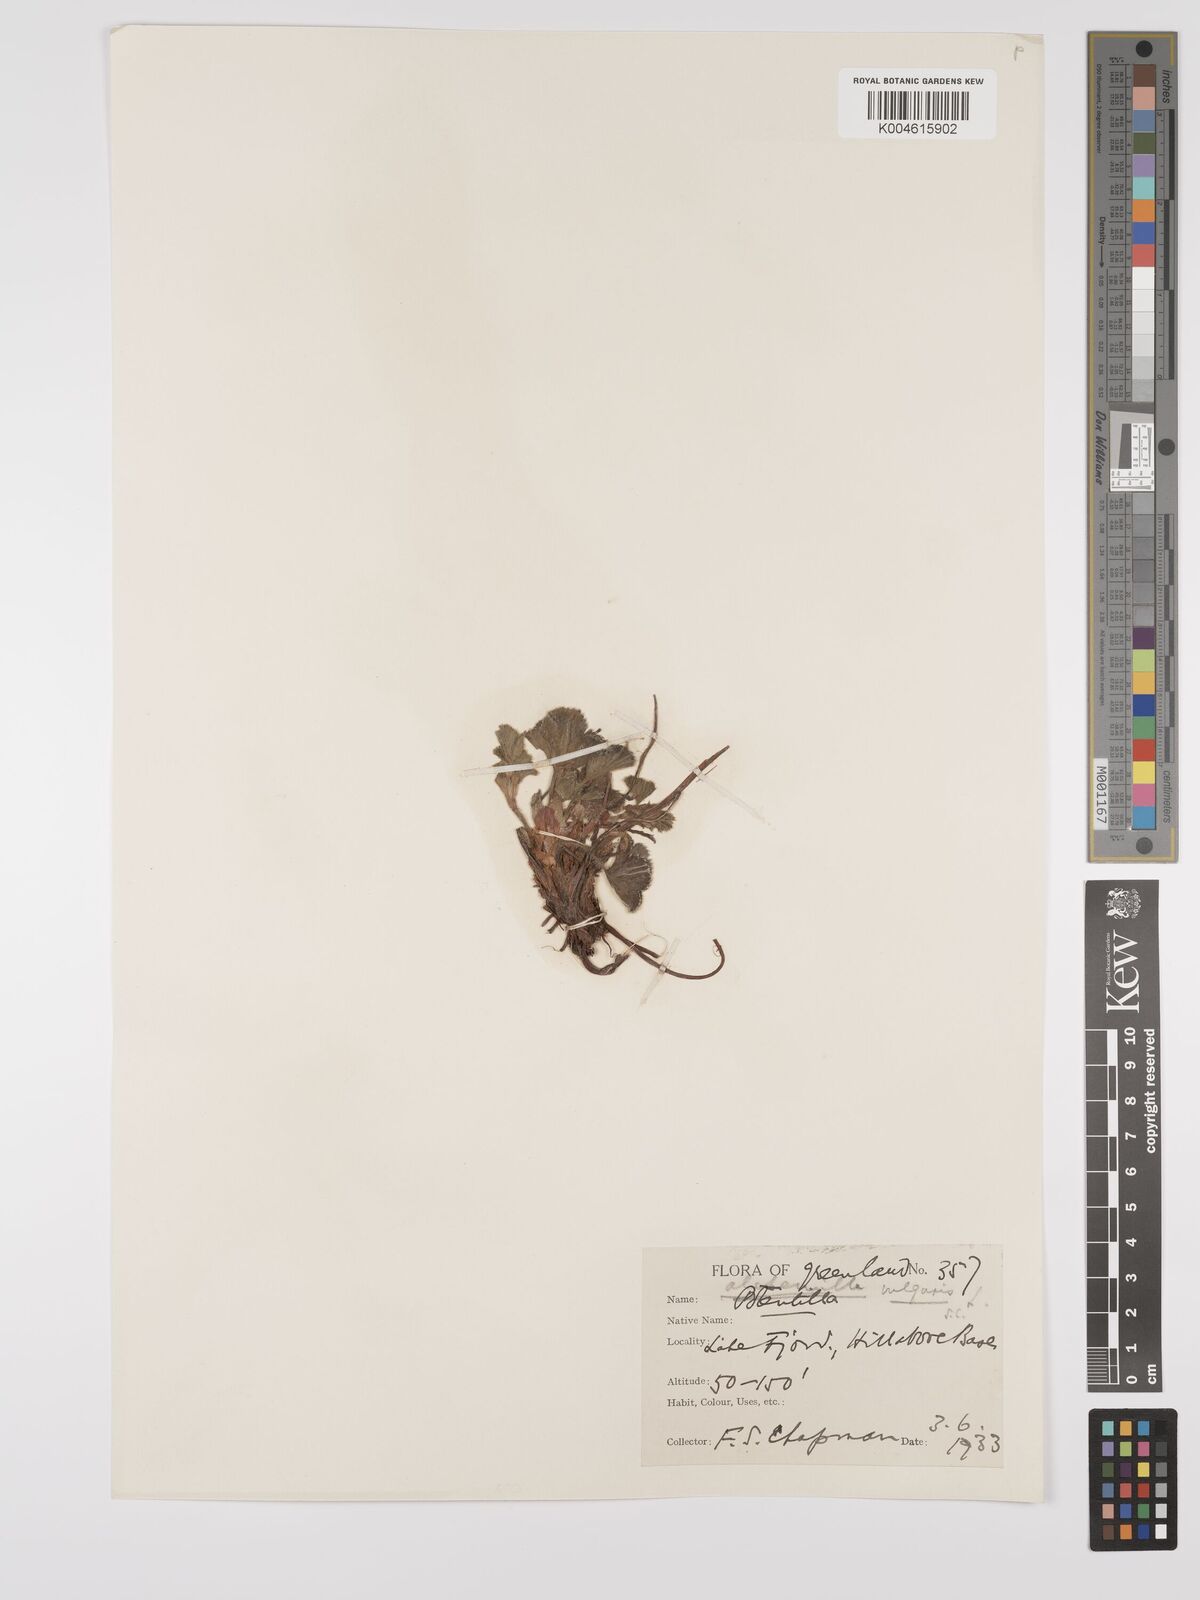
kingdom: Plantae
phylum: Tracheophyta
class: Magnoliopsida
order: Rosales
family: Rosaceae
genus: Alchemilla
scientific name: Alchemilla vulgaris
